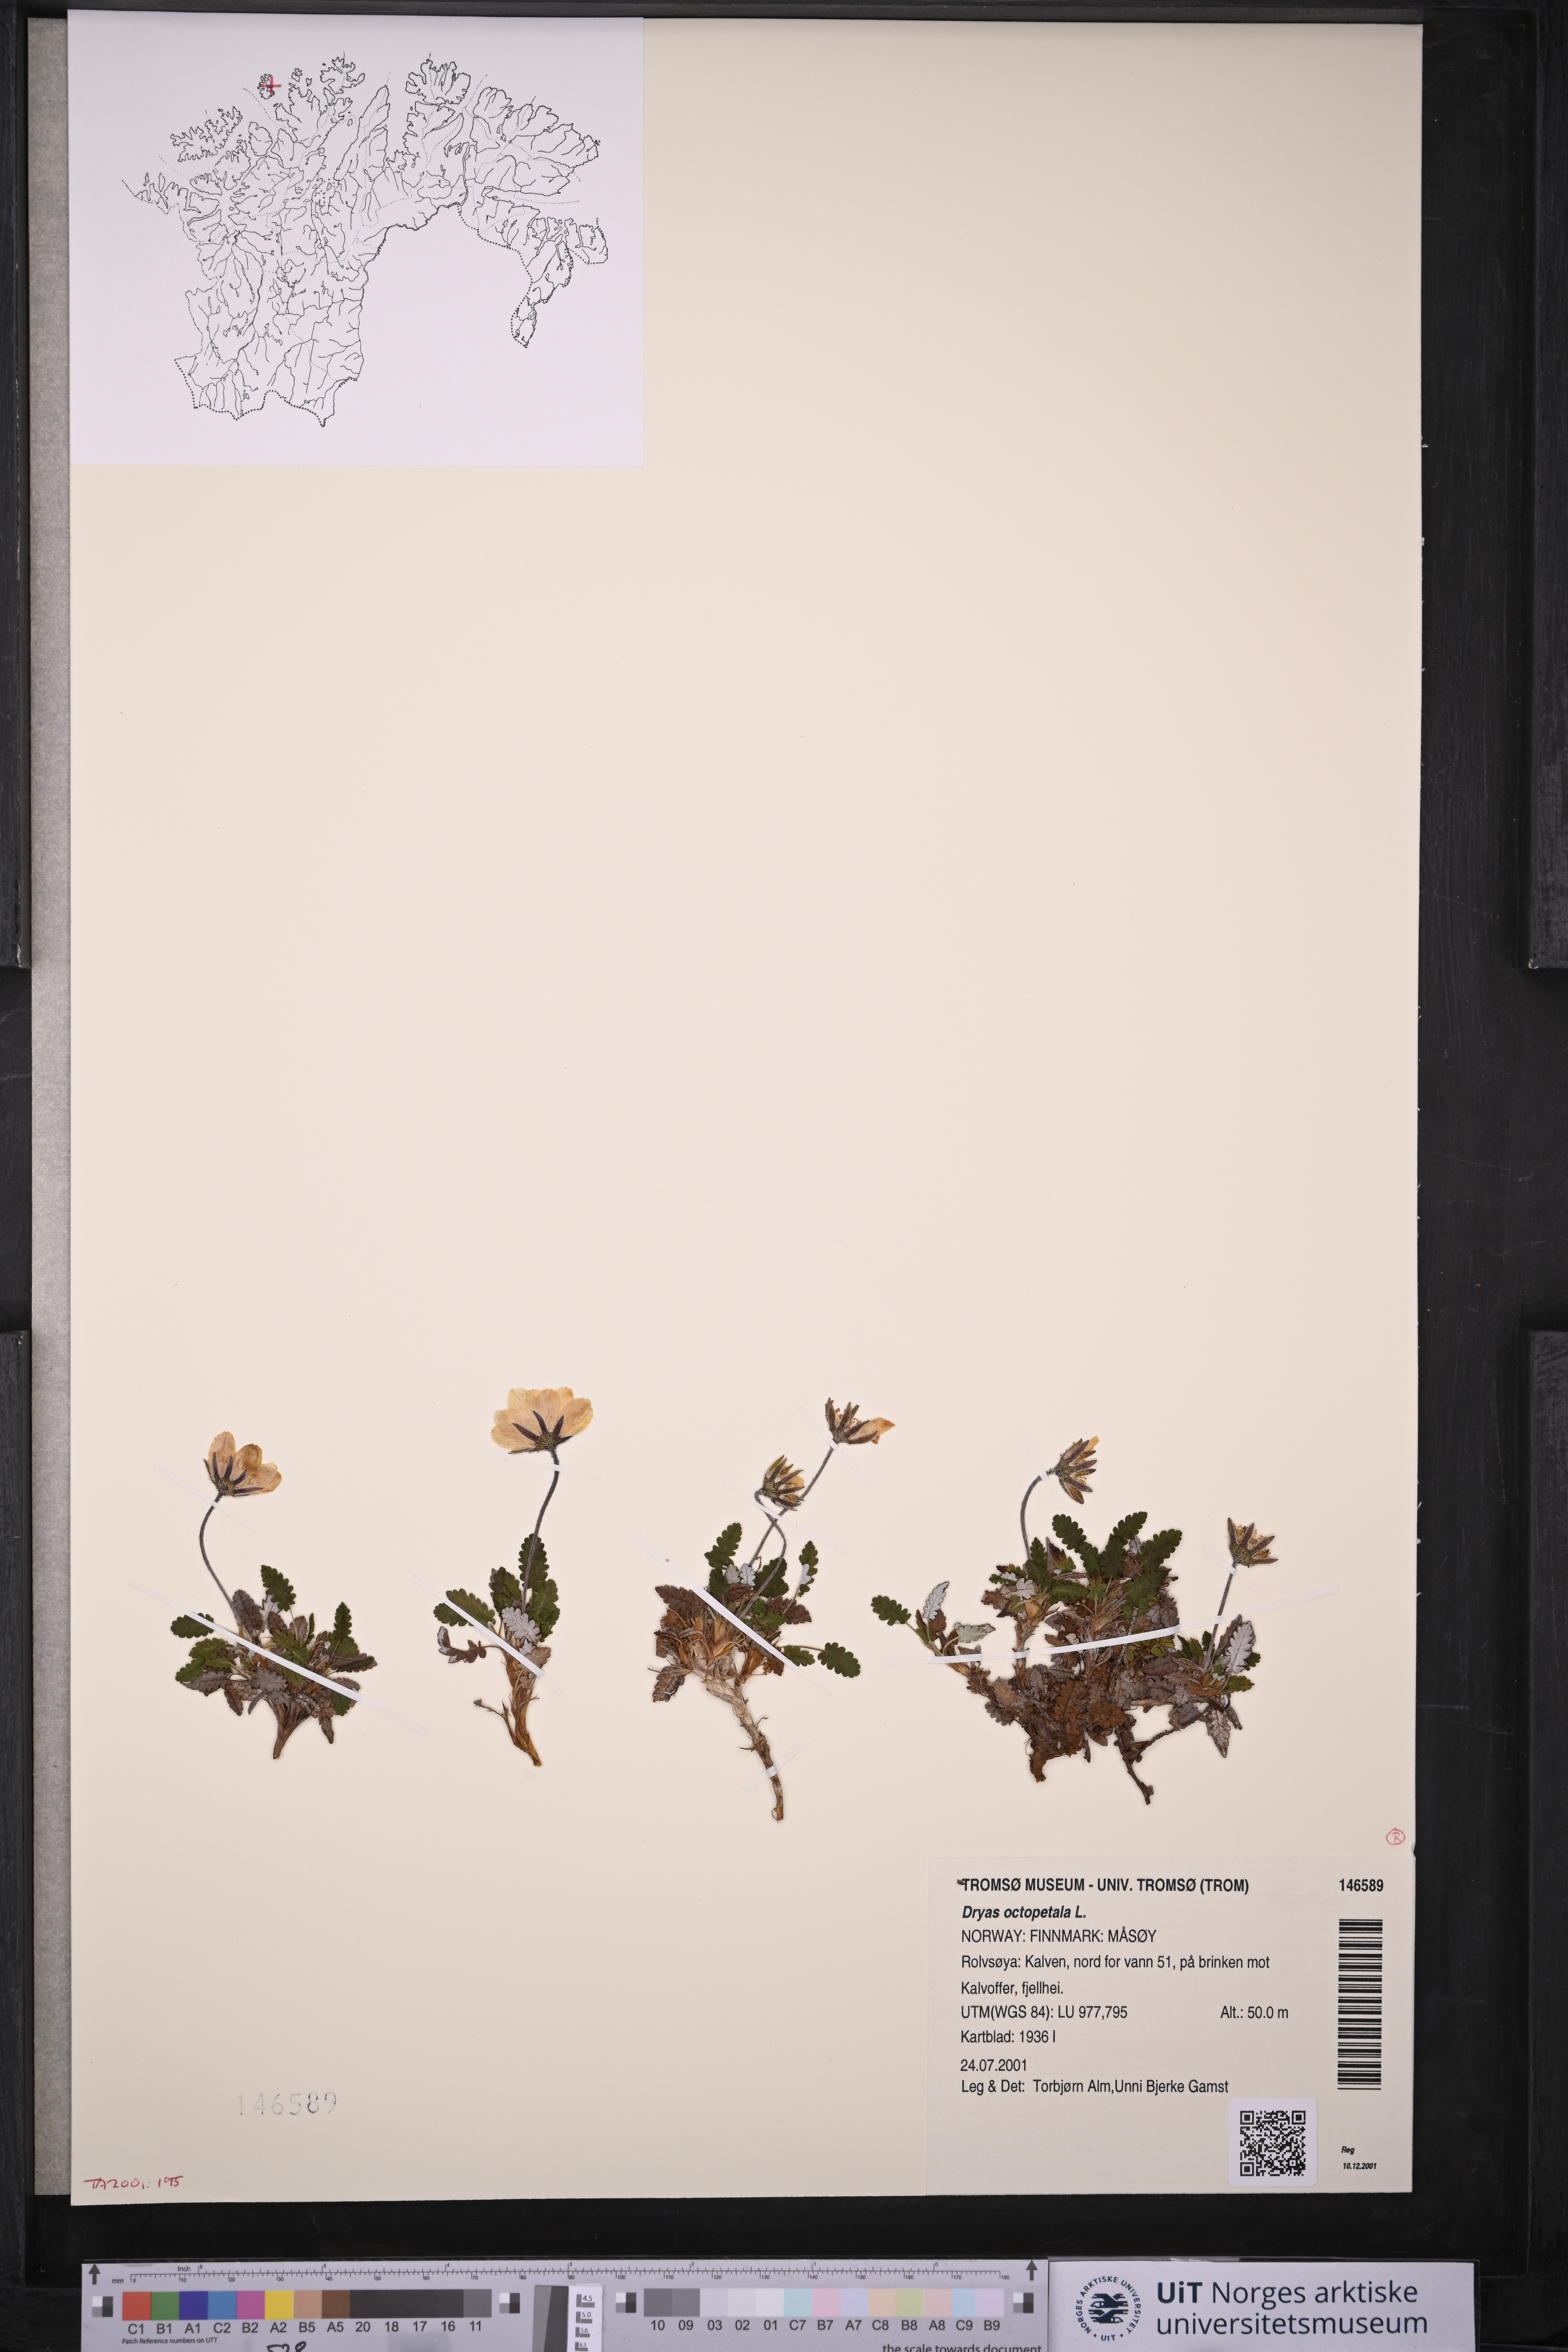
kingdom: Plantae
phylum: Tracheophyta
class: Magnoliopsida
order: Rosales
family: Rosaceae
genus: Dryas
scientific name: Dryas octopetala
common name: Eight-petal mountain-avens
